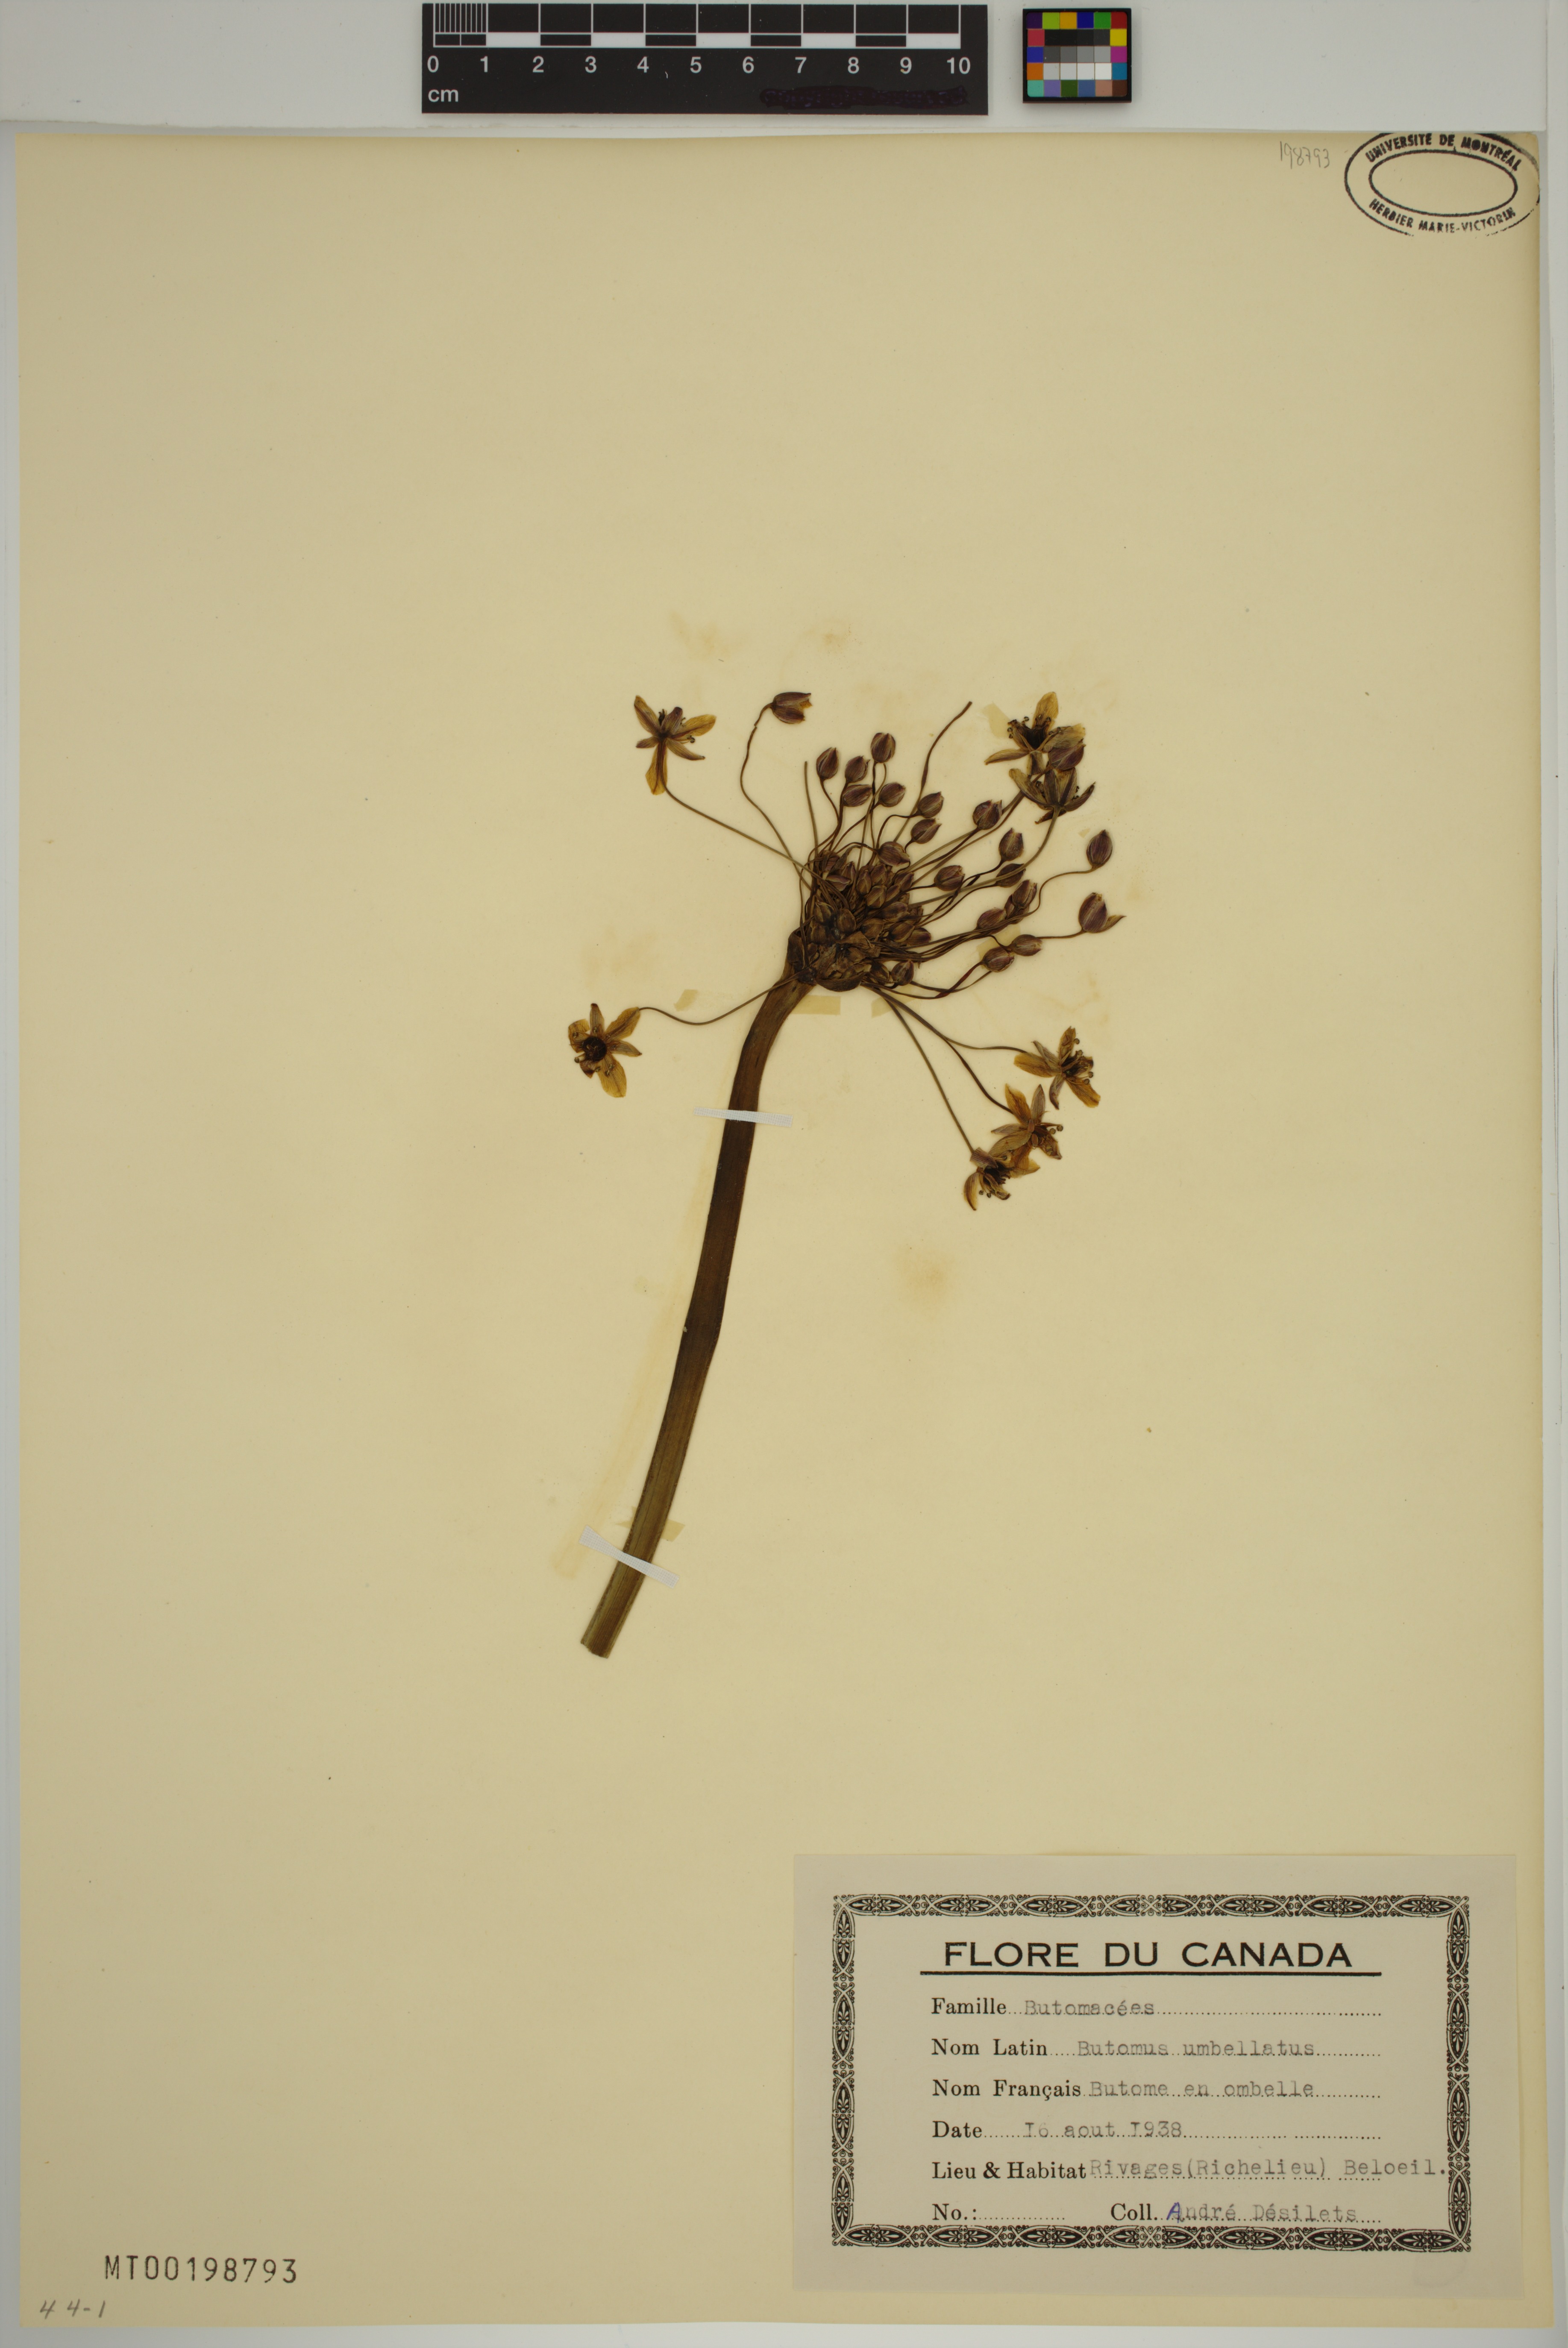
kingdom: Plantae
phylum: Tracheophyta
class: Liliopsida
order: Alismatales
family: Butomaceae
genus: Butomus
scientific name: Butomus umbellatus
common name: Flowering-rush
